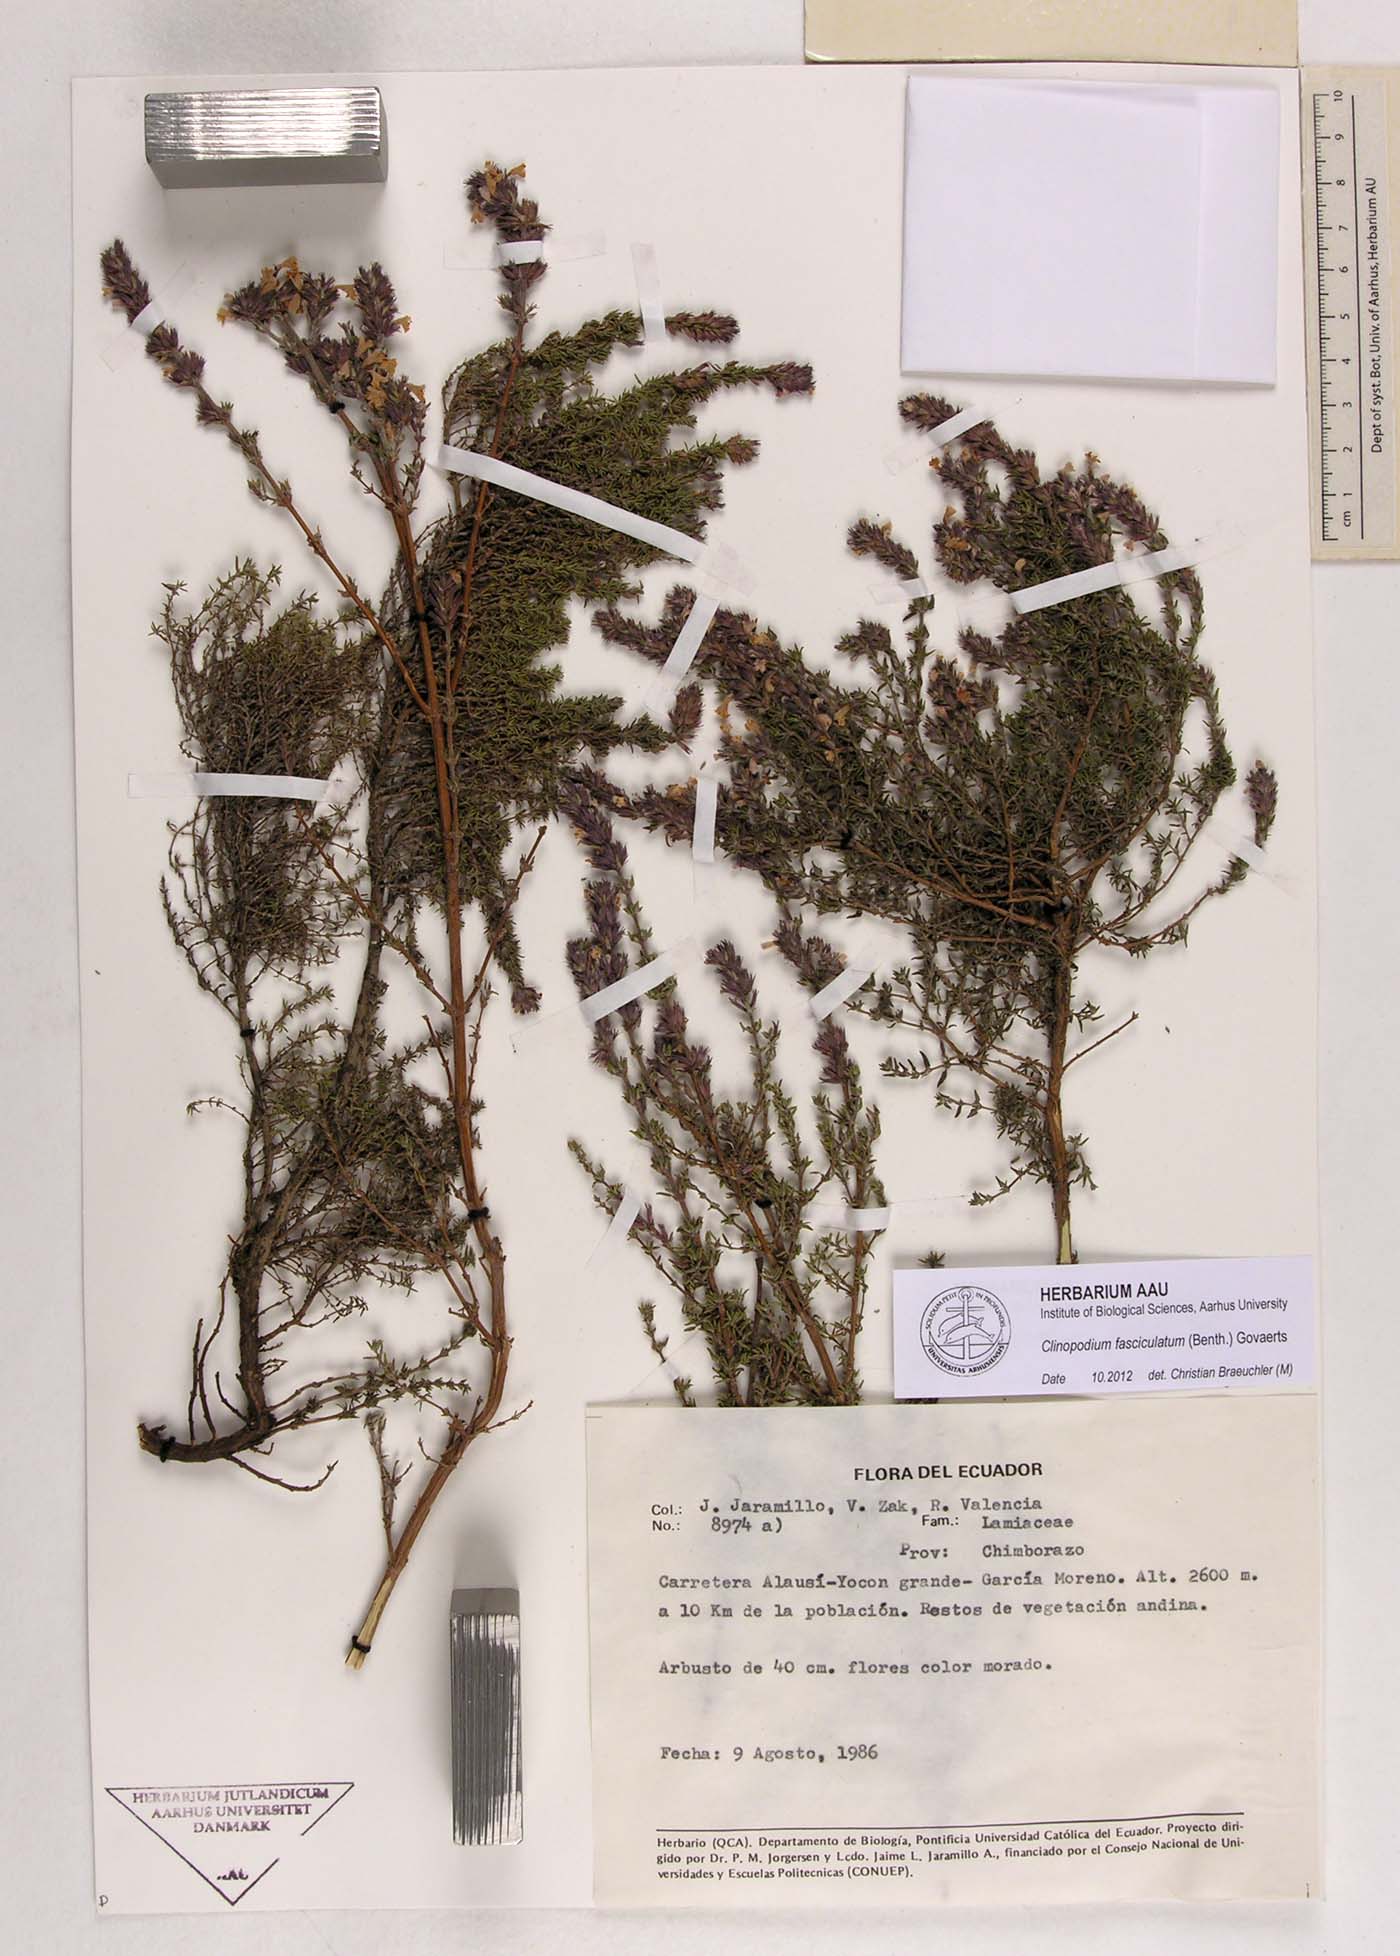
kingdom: Plantae
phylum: Tracheophyta
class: Magnoliopsida
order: Lamiales
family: Lamiaceae
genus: Clinopodium
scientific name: Clinopodium fasciculatum
